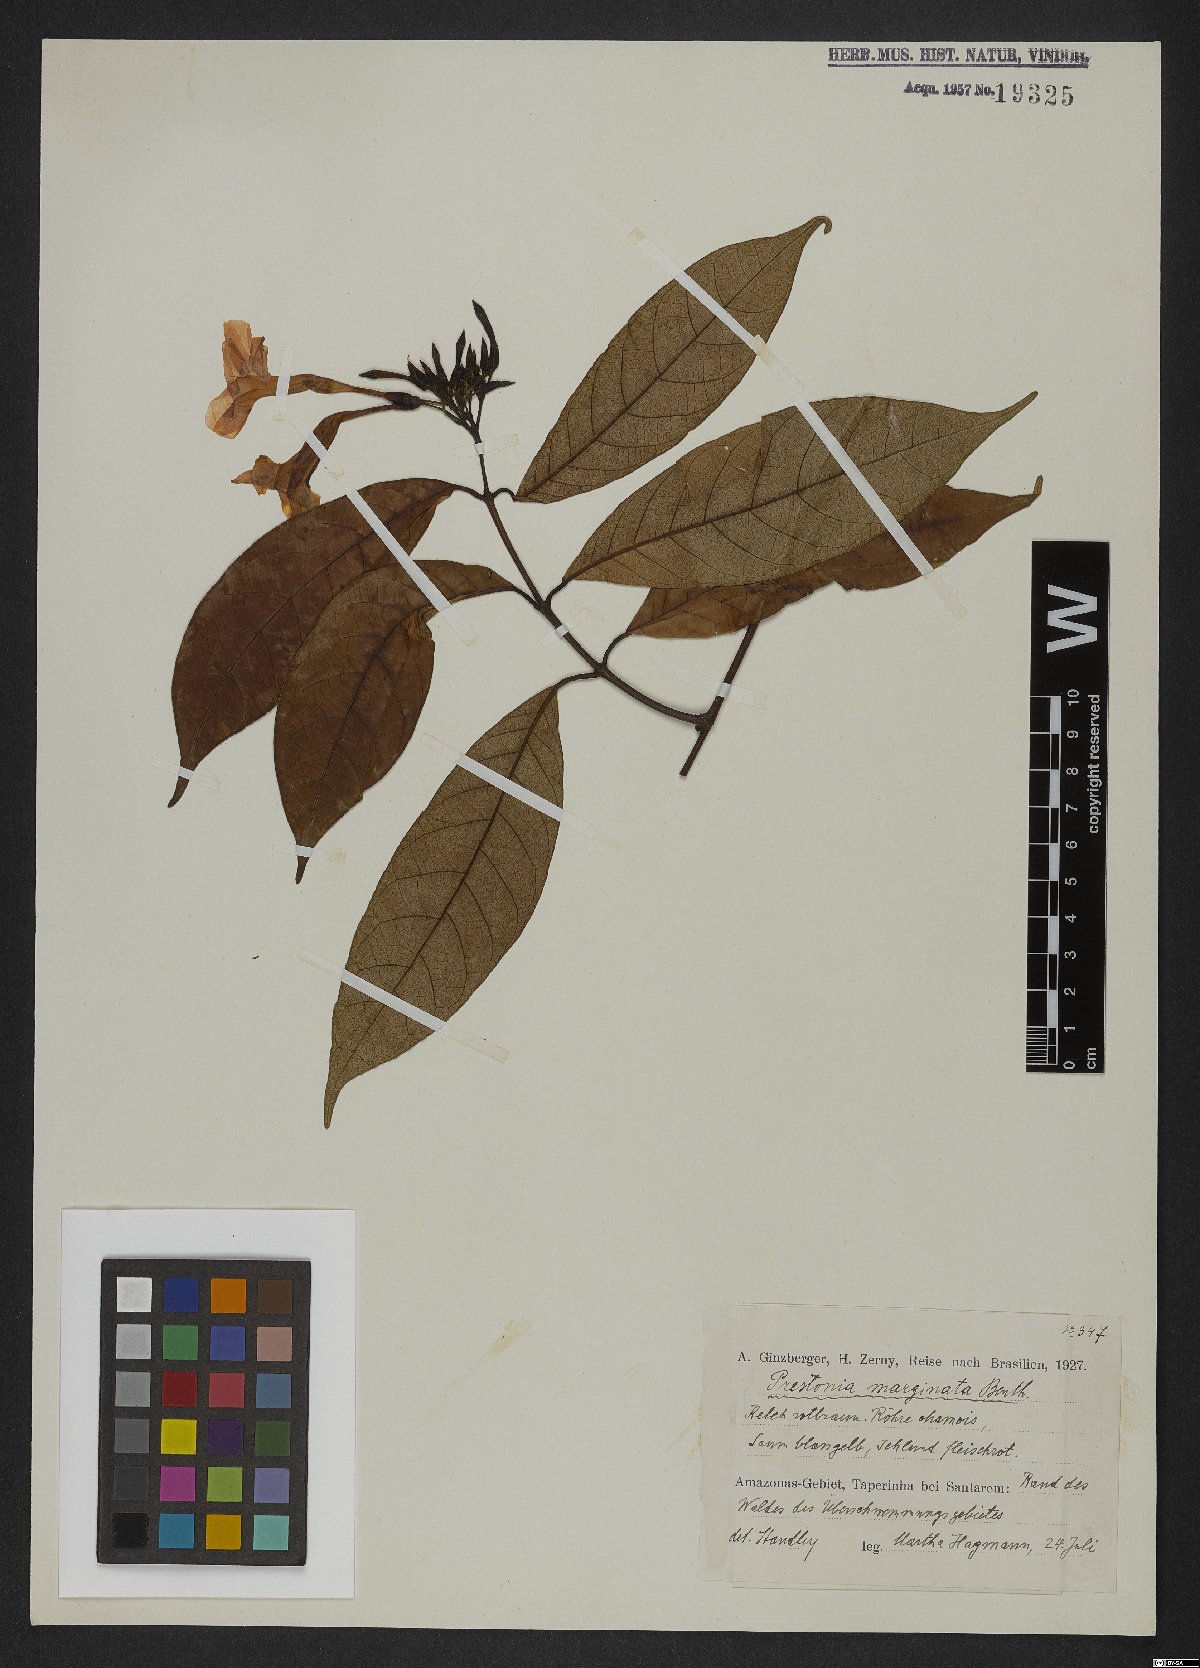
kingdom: Plantae
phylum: Tracheophyta
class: Magnoliopsida
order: Gentianales
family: Apocynaceae
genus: Prestonia
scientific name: Prestonia cayennensis
